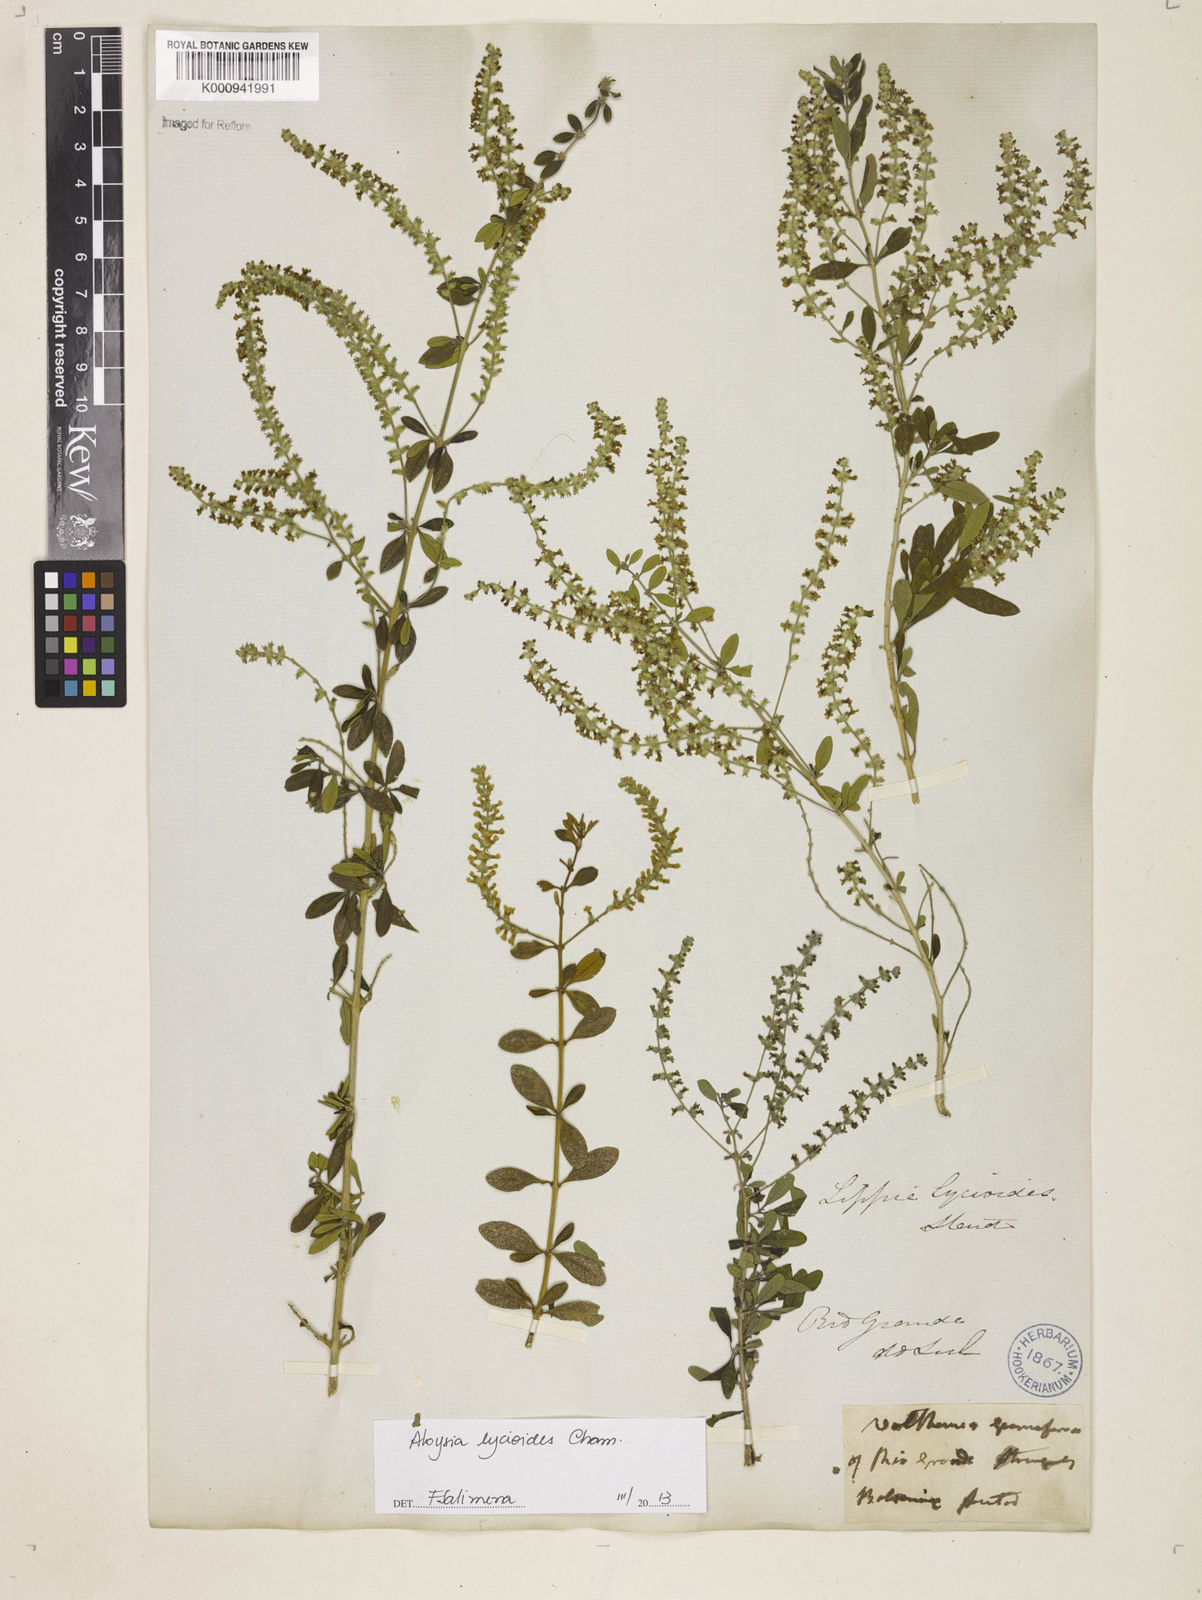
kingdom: Plantae
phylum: Tracheophyta
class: Magnoliopsida
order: Lamiales
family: Verbenaceae
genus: Aloysia
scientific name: Aloysia
